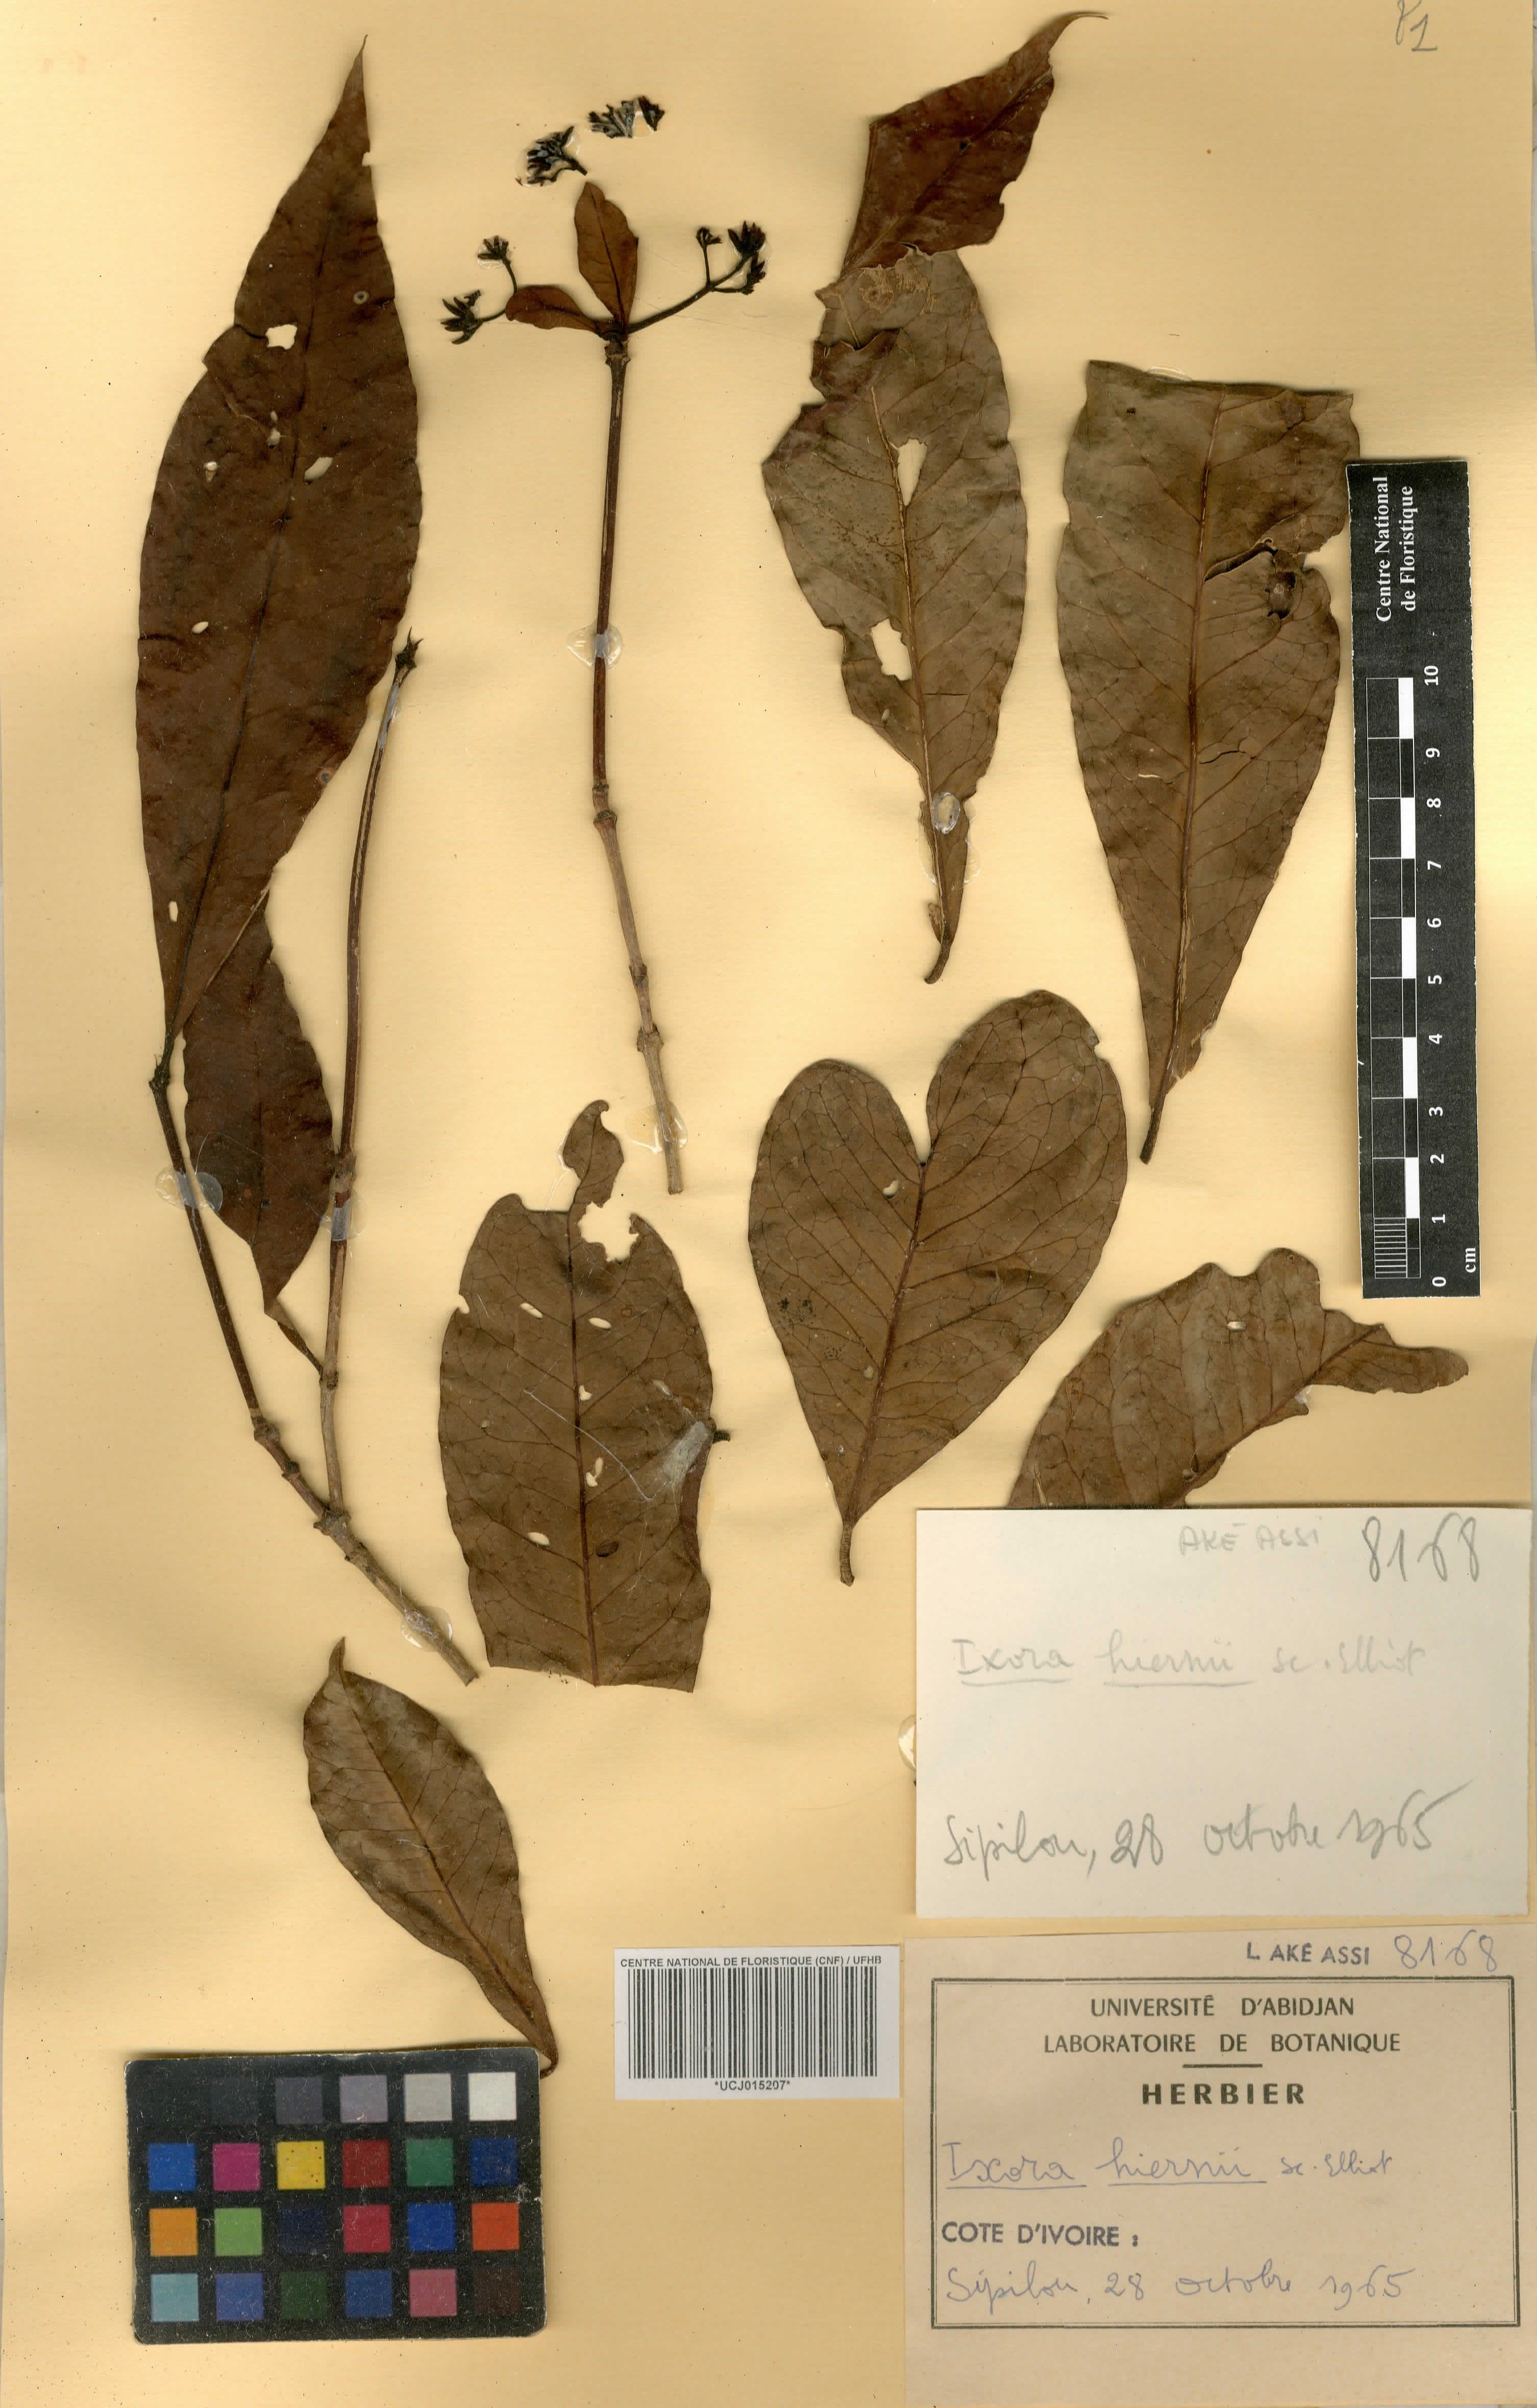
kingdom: Plantae
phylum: Tracheophyta
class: Magnoliopsida
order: Gentianales
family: Rubiaceae
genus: Ixora
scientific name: Ixora hiernii
